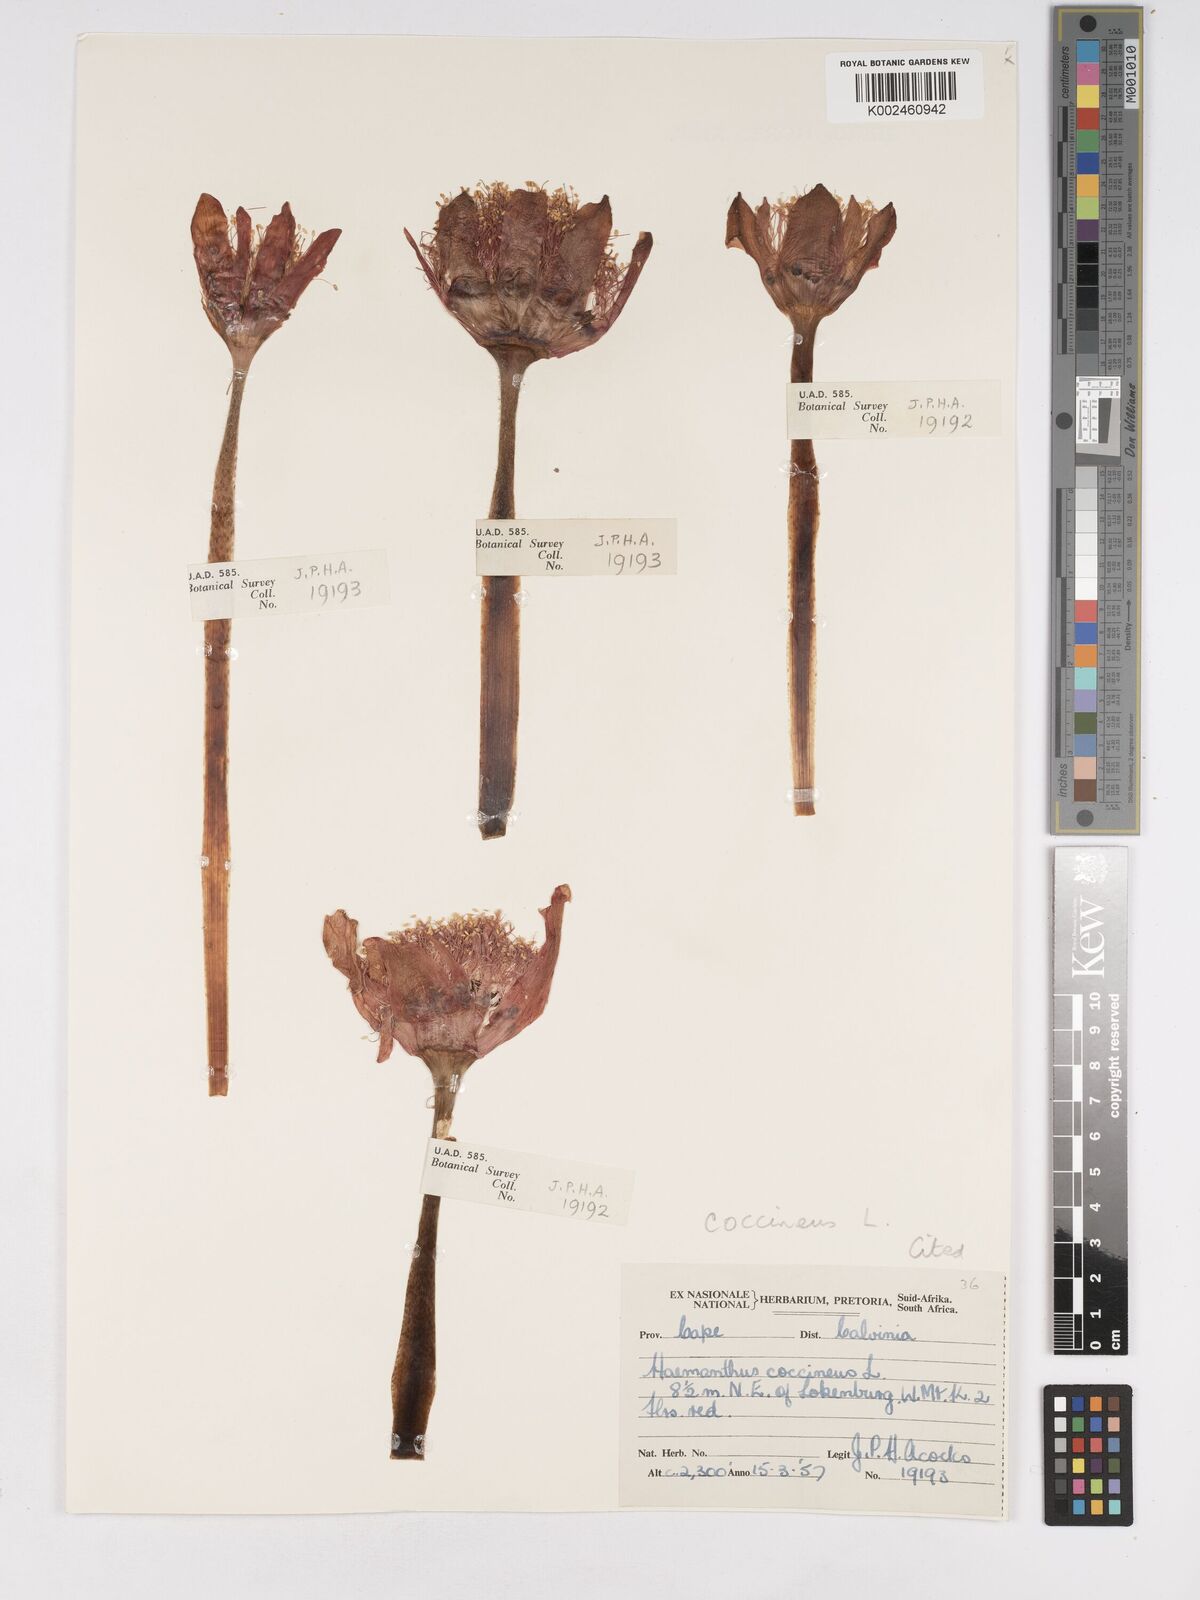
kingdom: Plantae
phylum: Tracheophyta
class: Liliopsida
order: Asparagales
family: Amaryllidaceae
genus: Haemanthus
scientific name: Haemanthus coccineus
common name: Cape-tulip
